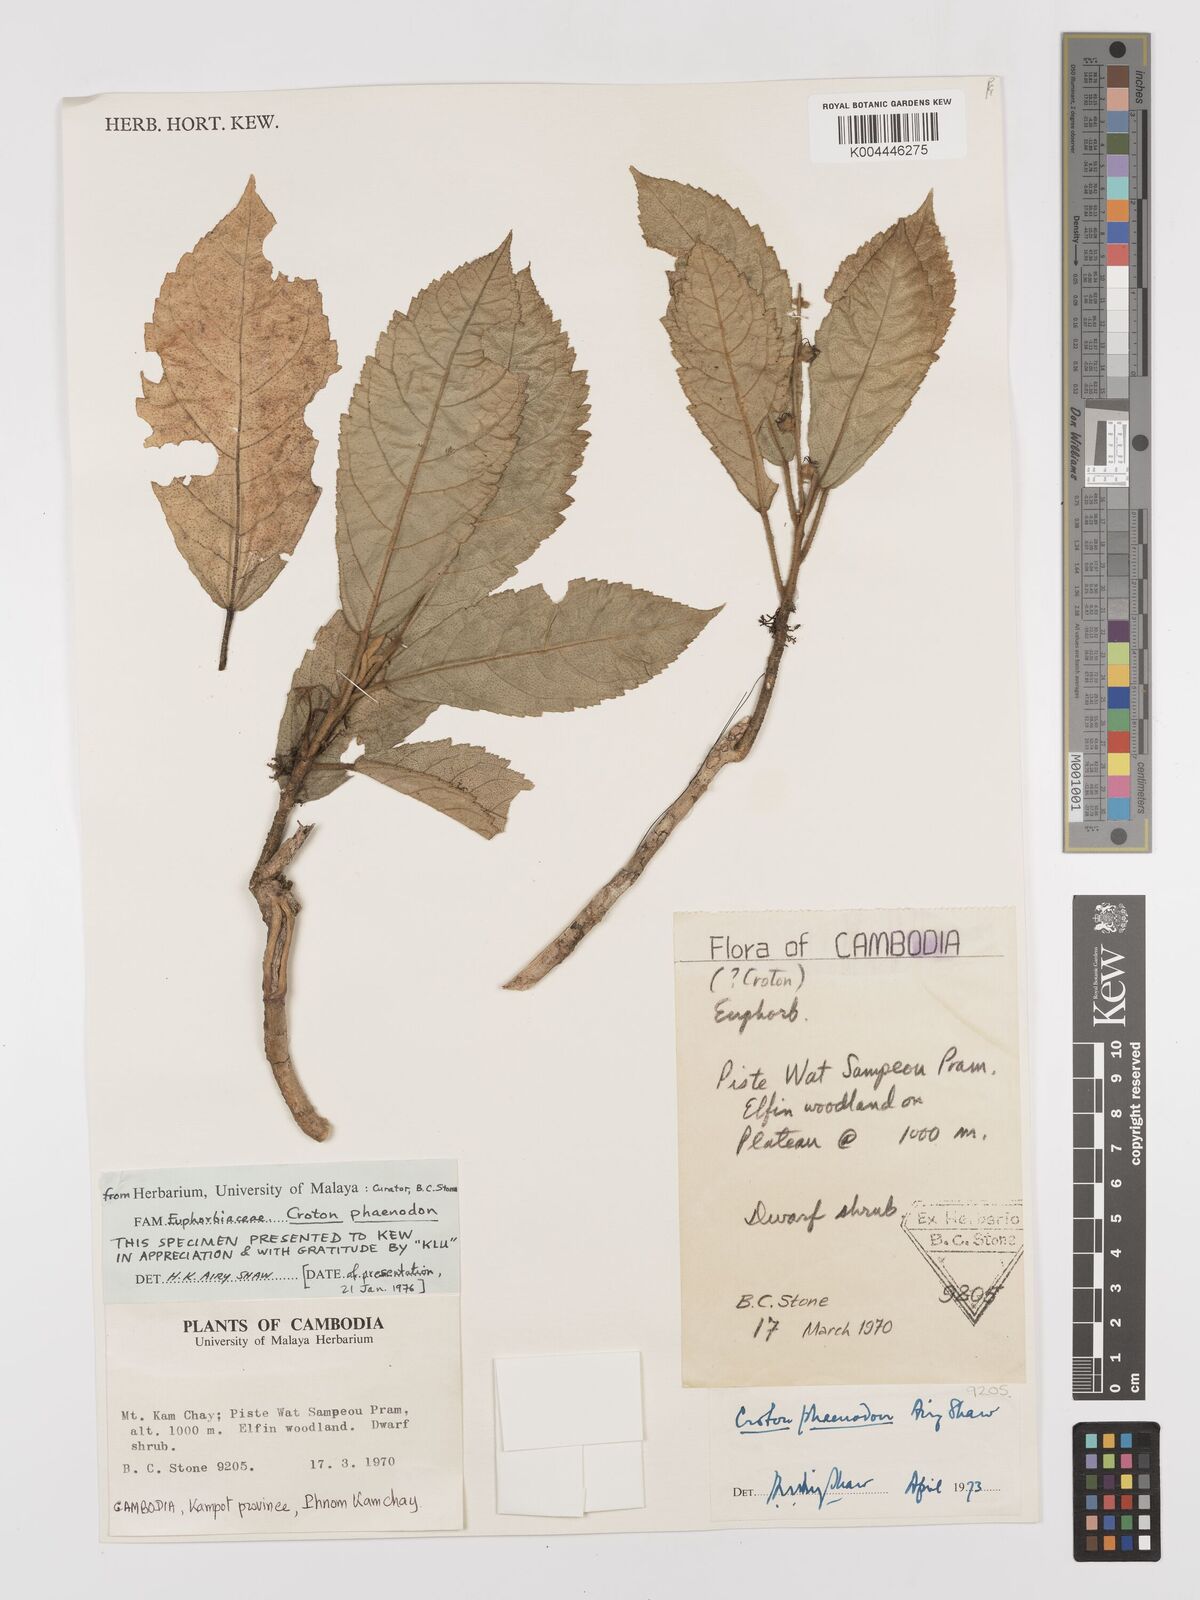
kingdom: Plantae
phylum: Tracheophyta
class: Magnoliopsida
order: Malpighiales
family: Euphorbiaceae
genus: Croton
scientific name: Croton phaenodon
